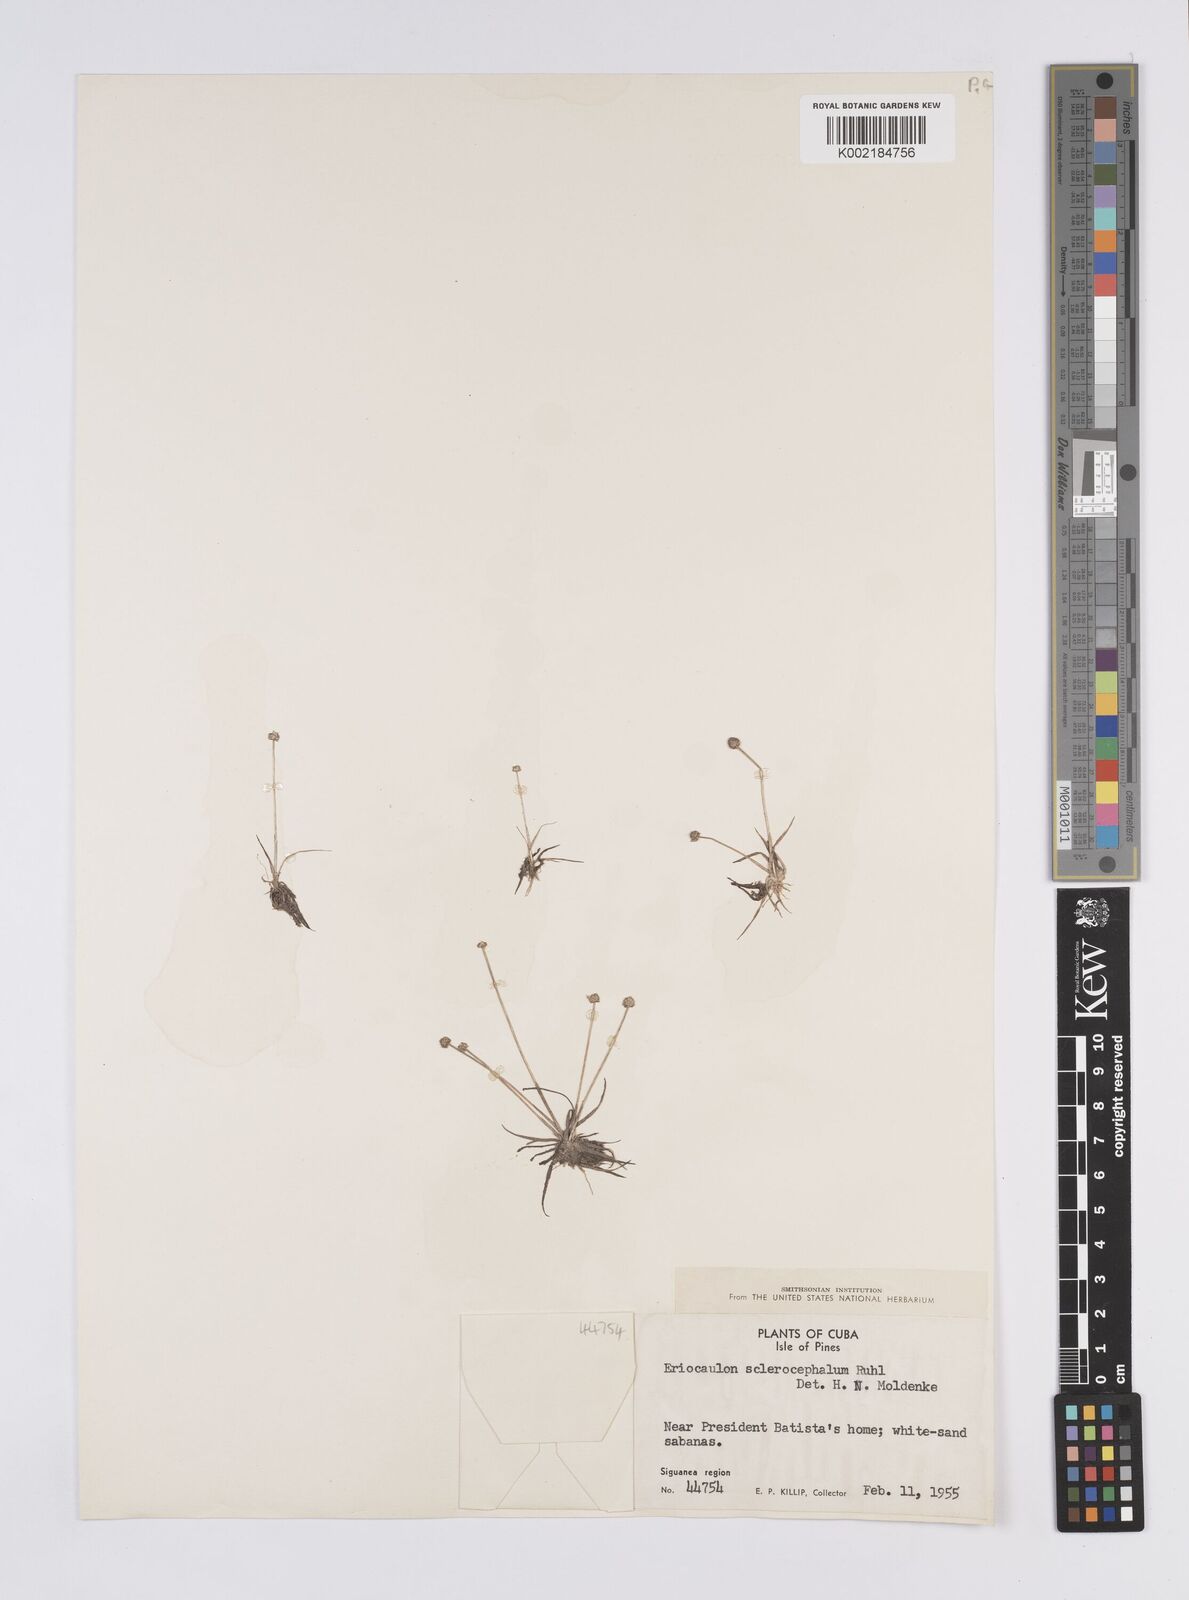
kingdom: Plantae
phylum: Tracheophyta
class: Liliopsida
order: Poales
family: Eriocaulaceae
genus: Eriocaulon
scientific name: Eriocaulon sclerocephalum
